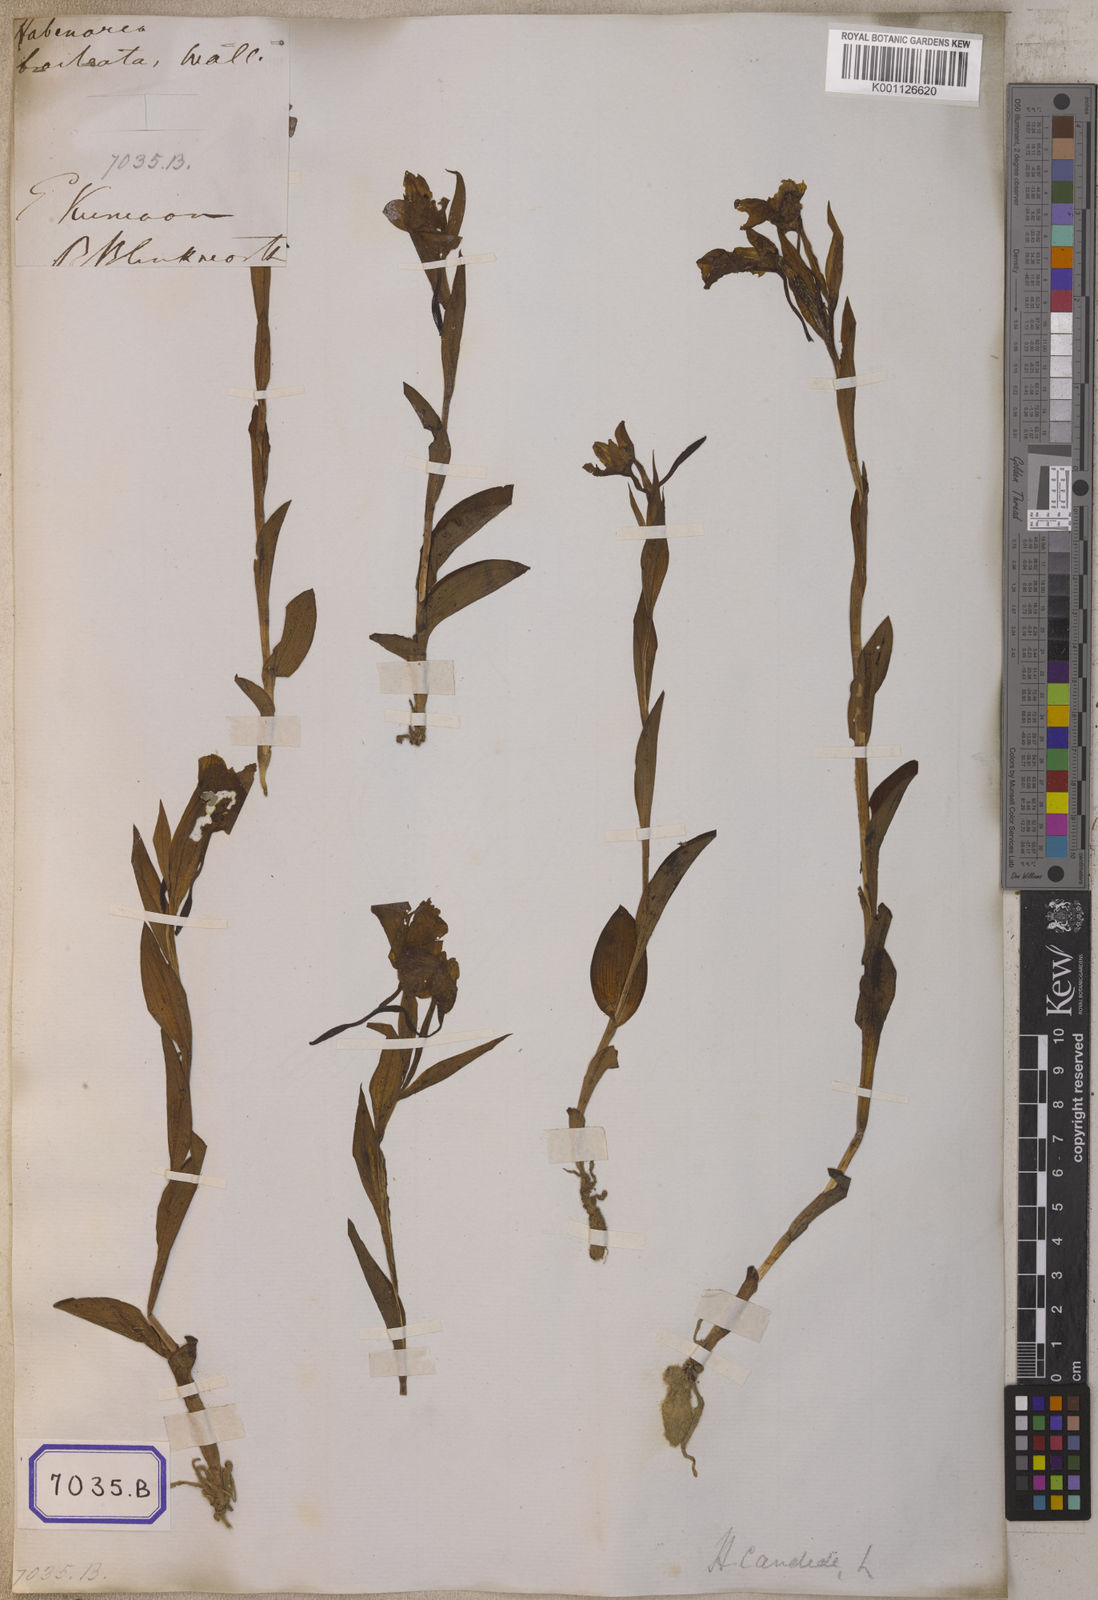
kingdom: Plantae
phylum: Tracheophyta
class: Liliopsida
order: Asparagales
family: Orchidaceae
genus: Pecteilis
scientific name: Pecteilis triflora
